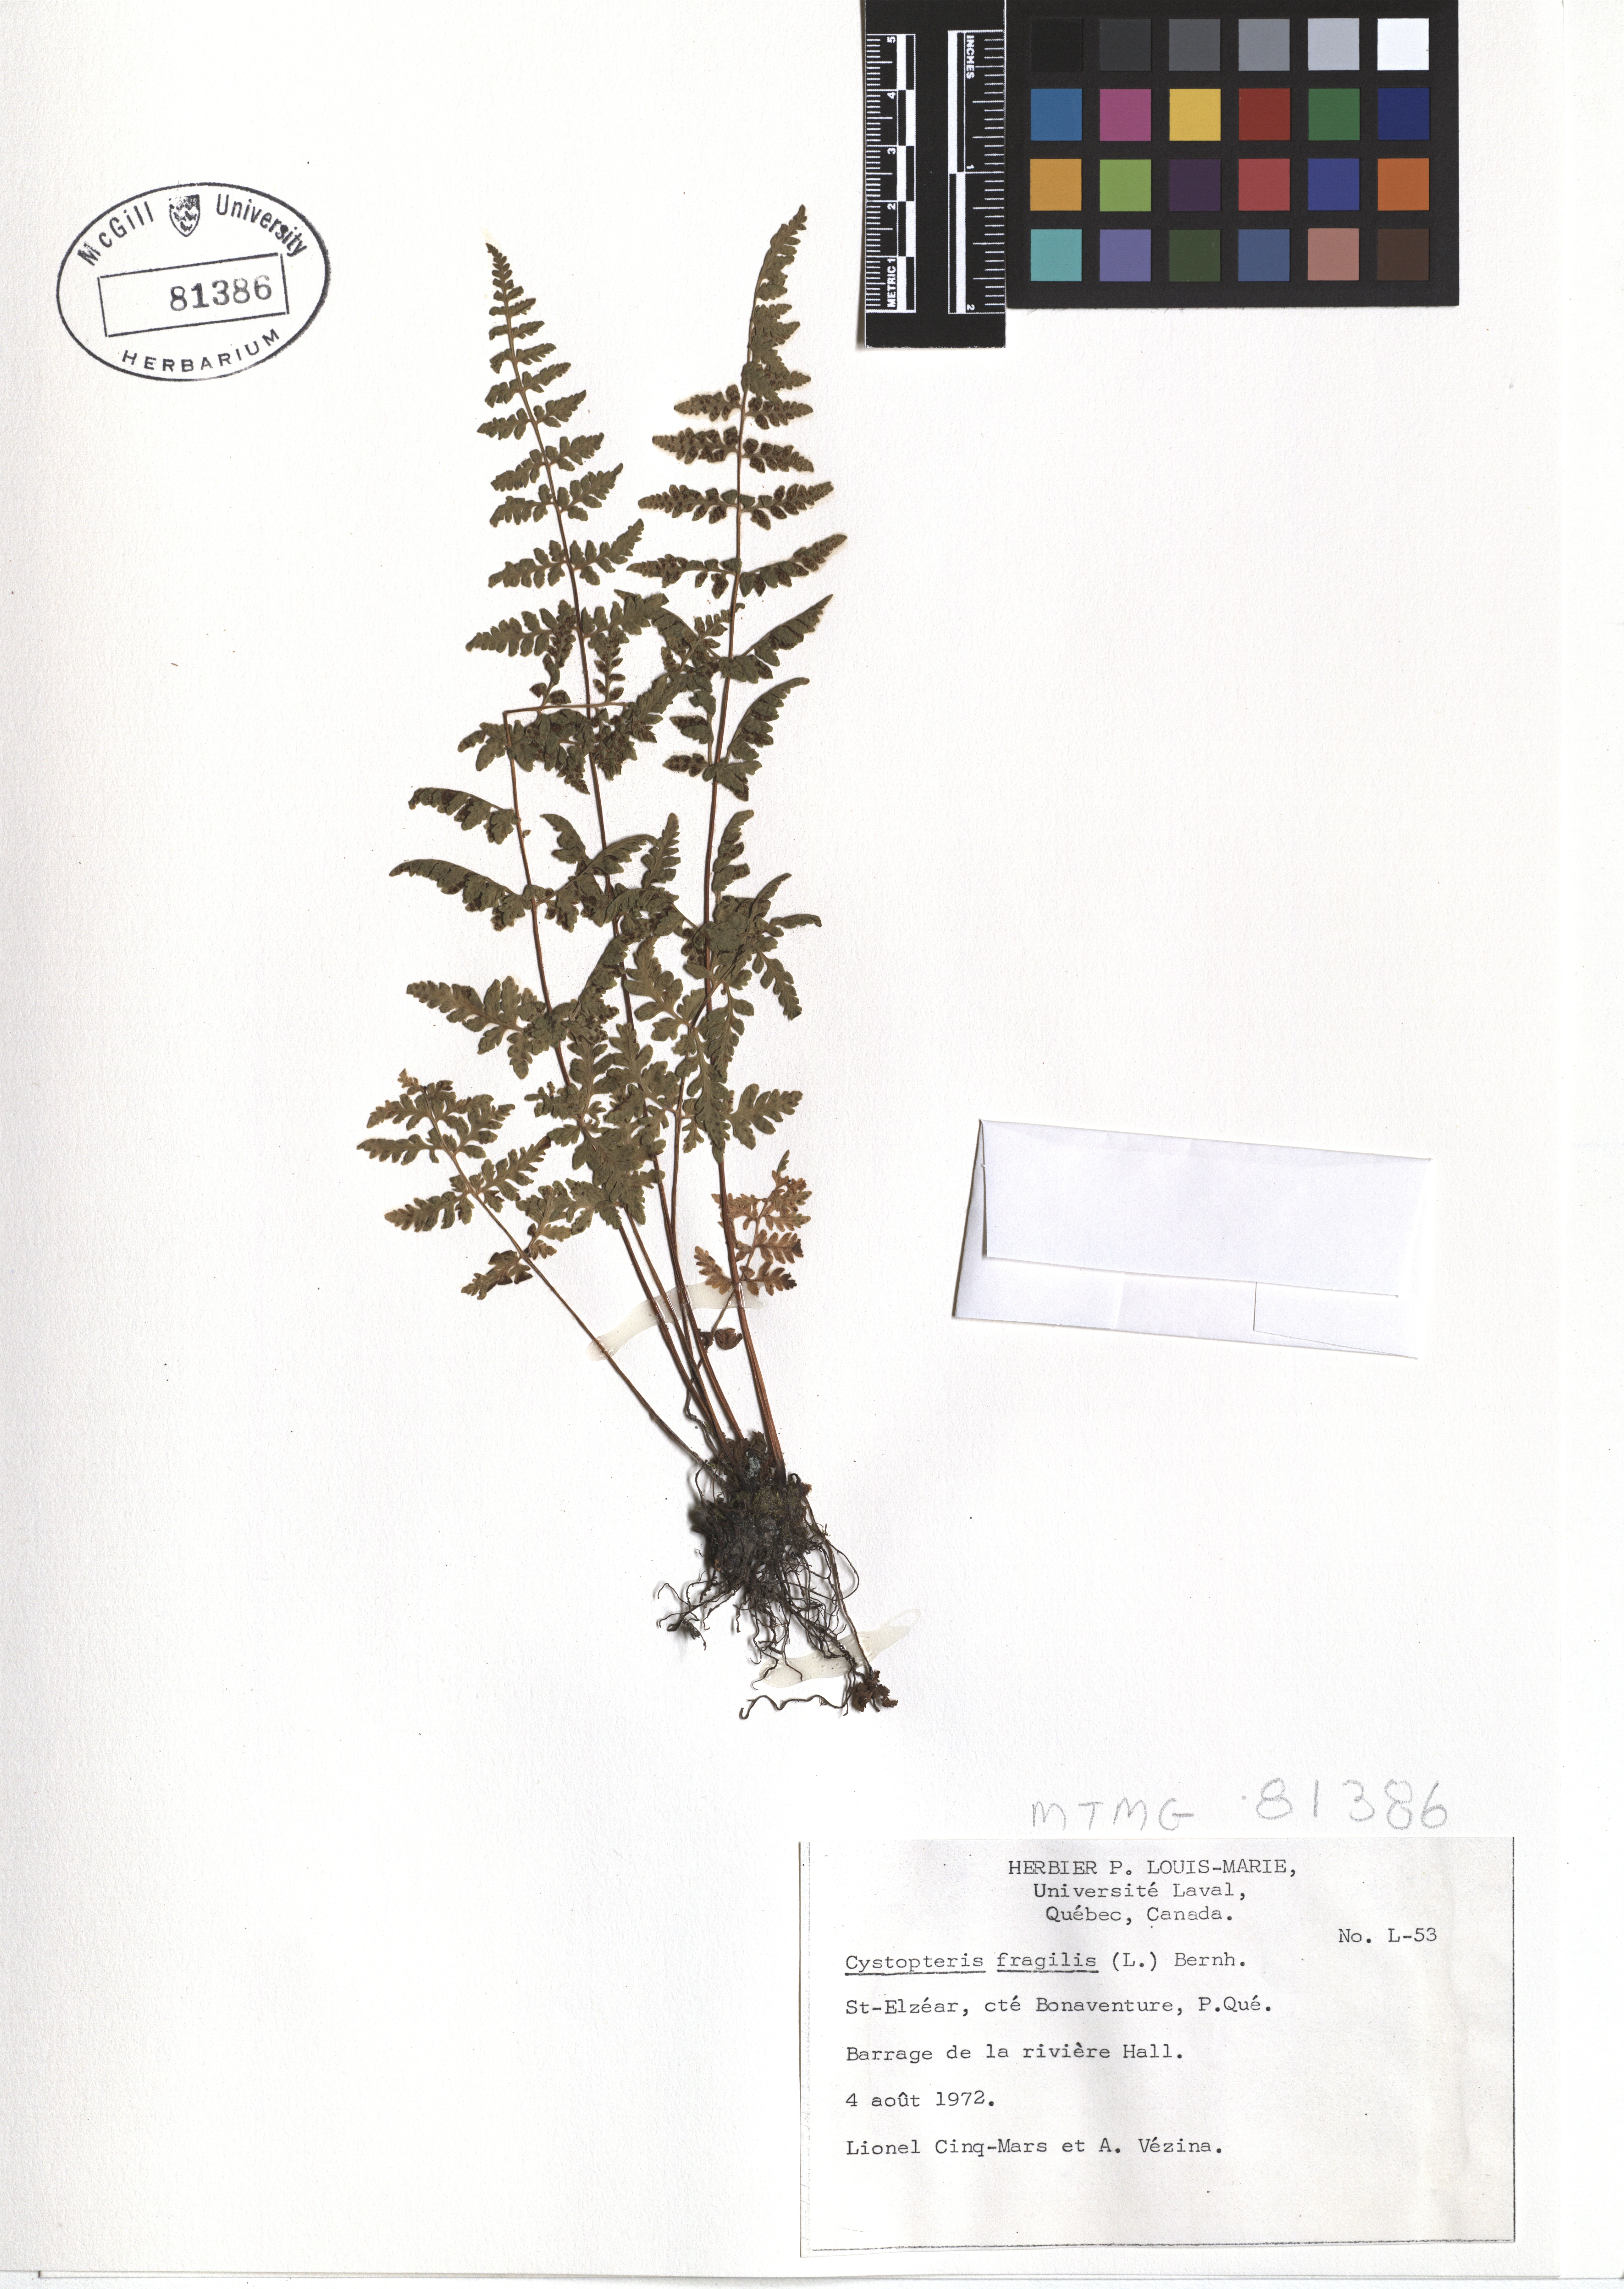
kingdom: Plantae
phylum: Tracheophyta
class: Polypodiopsida
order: Polypodiales
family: Cystopteridaceae
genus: Cystopteris
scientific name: Cystopteris fragilis
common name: Brittle bladder fern
